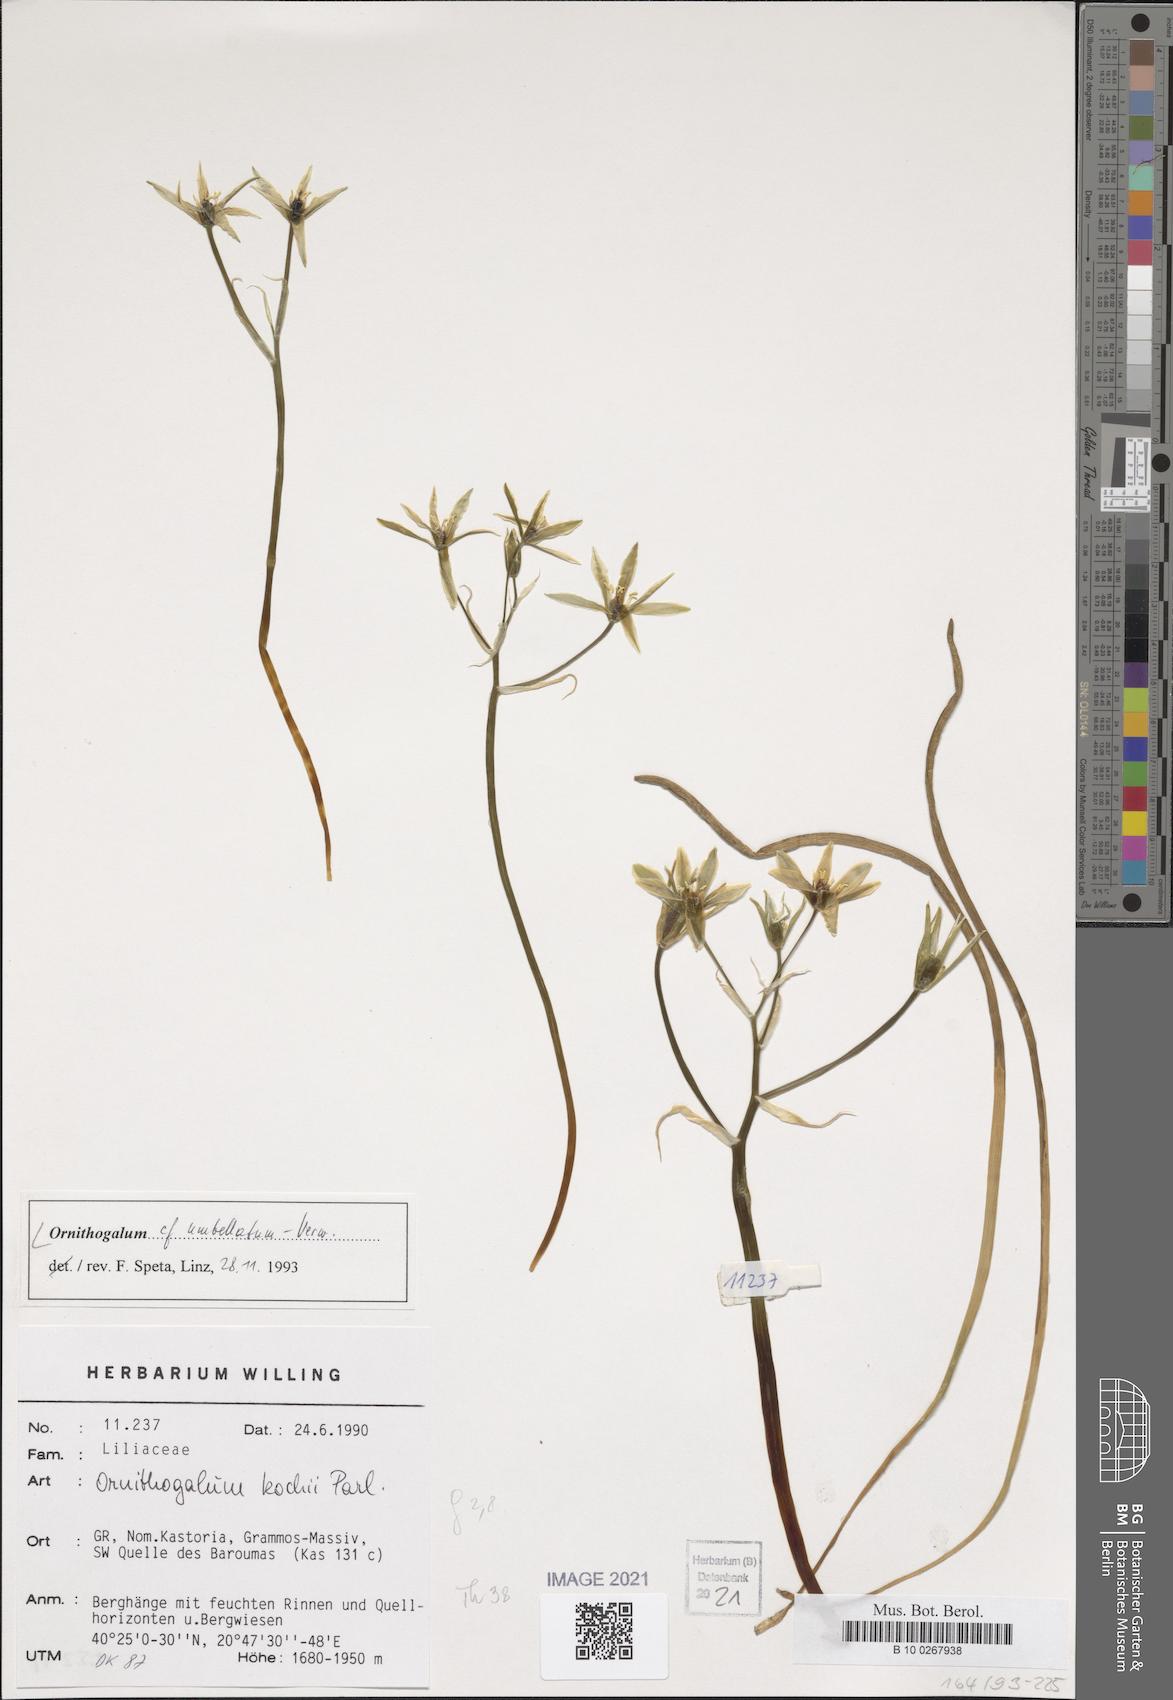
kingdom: Plantae
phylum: Tracheophyta
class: Liliopsida
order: Asparagales
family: Asparagaceae
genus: Ornithogalum
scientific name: Ornithogalum umbellatum
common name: Garden star-of-bethlehem
